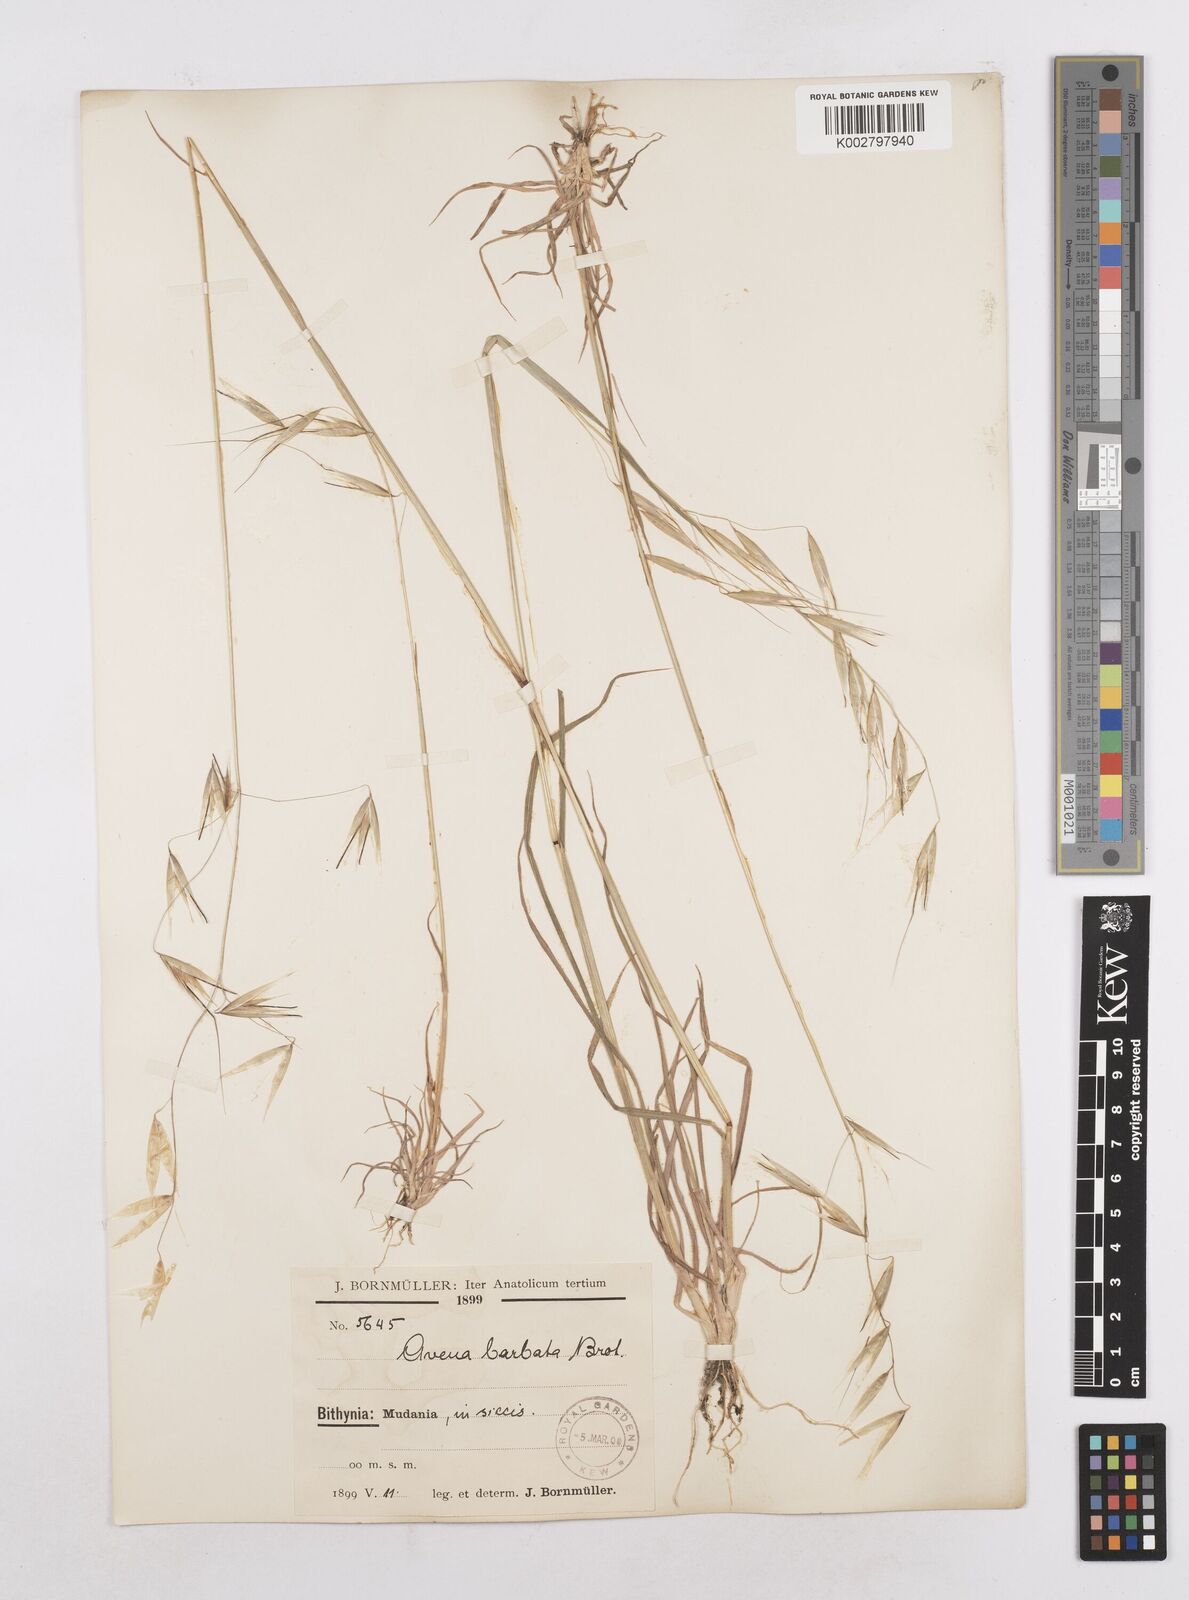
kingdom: Plantae
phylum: Tracheophyta
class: Liliopsida
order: Poales
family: Poaceae
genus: Avena
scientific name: Avena
